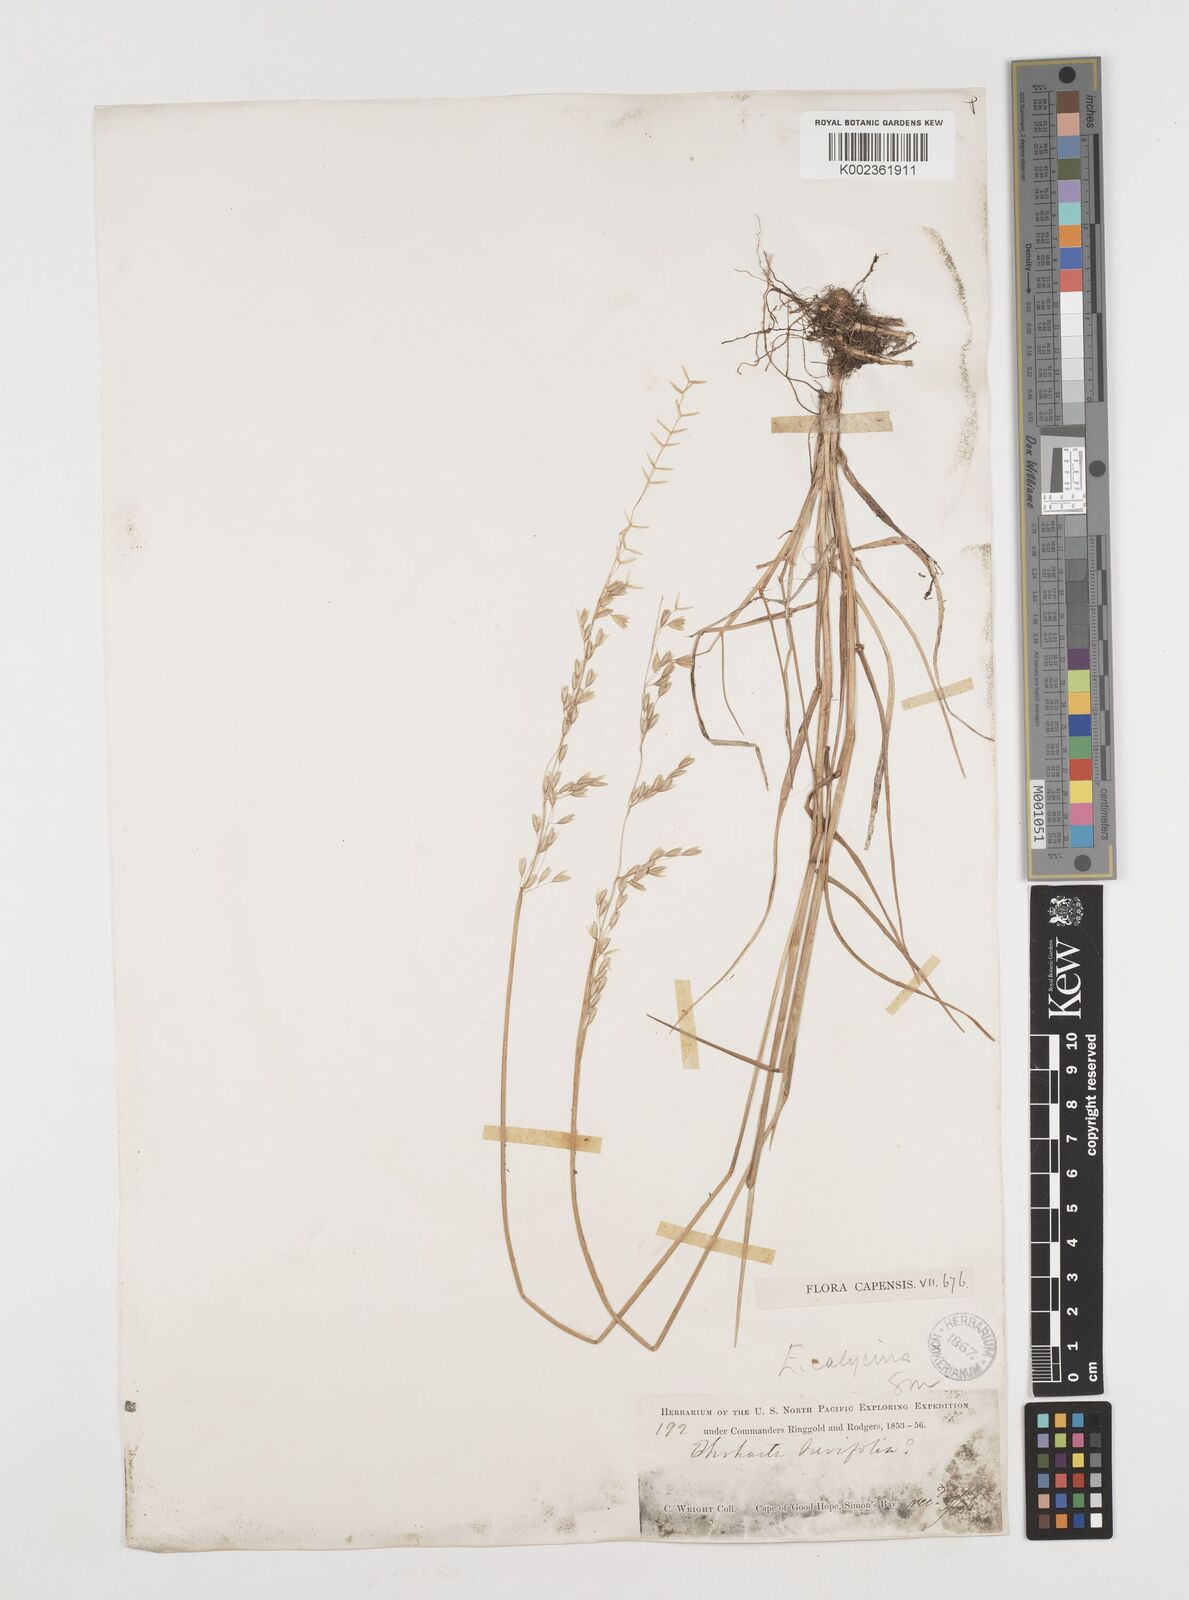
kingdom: Plantae
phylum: Tracheophyta
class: Liliopsida
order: Poales
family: Poaceae
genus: Ehrharta
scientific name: Ehrharta calycina
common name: Perennial veldtgrass
